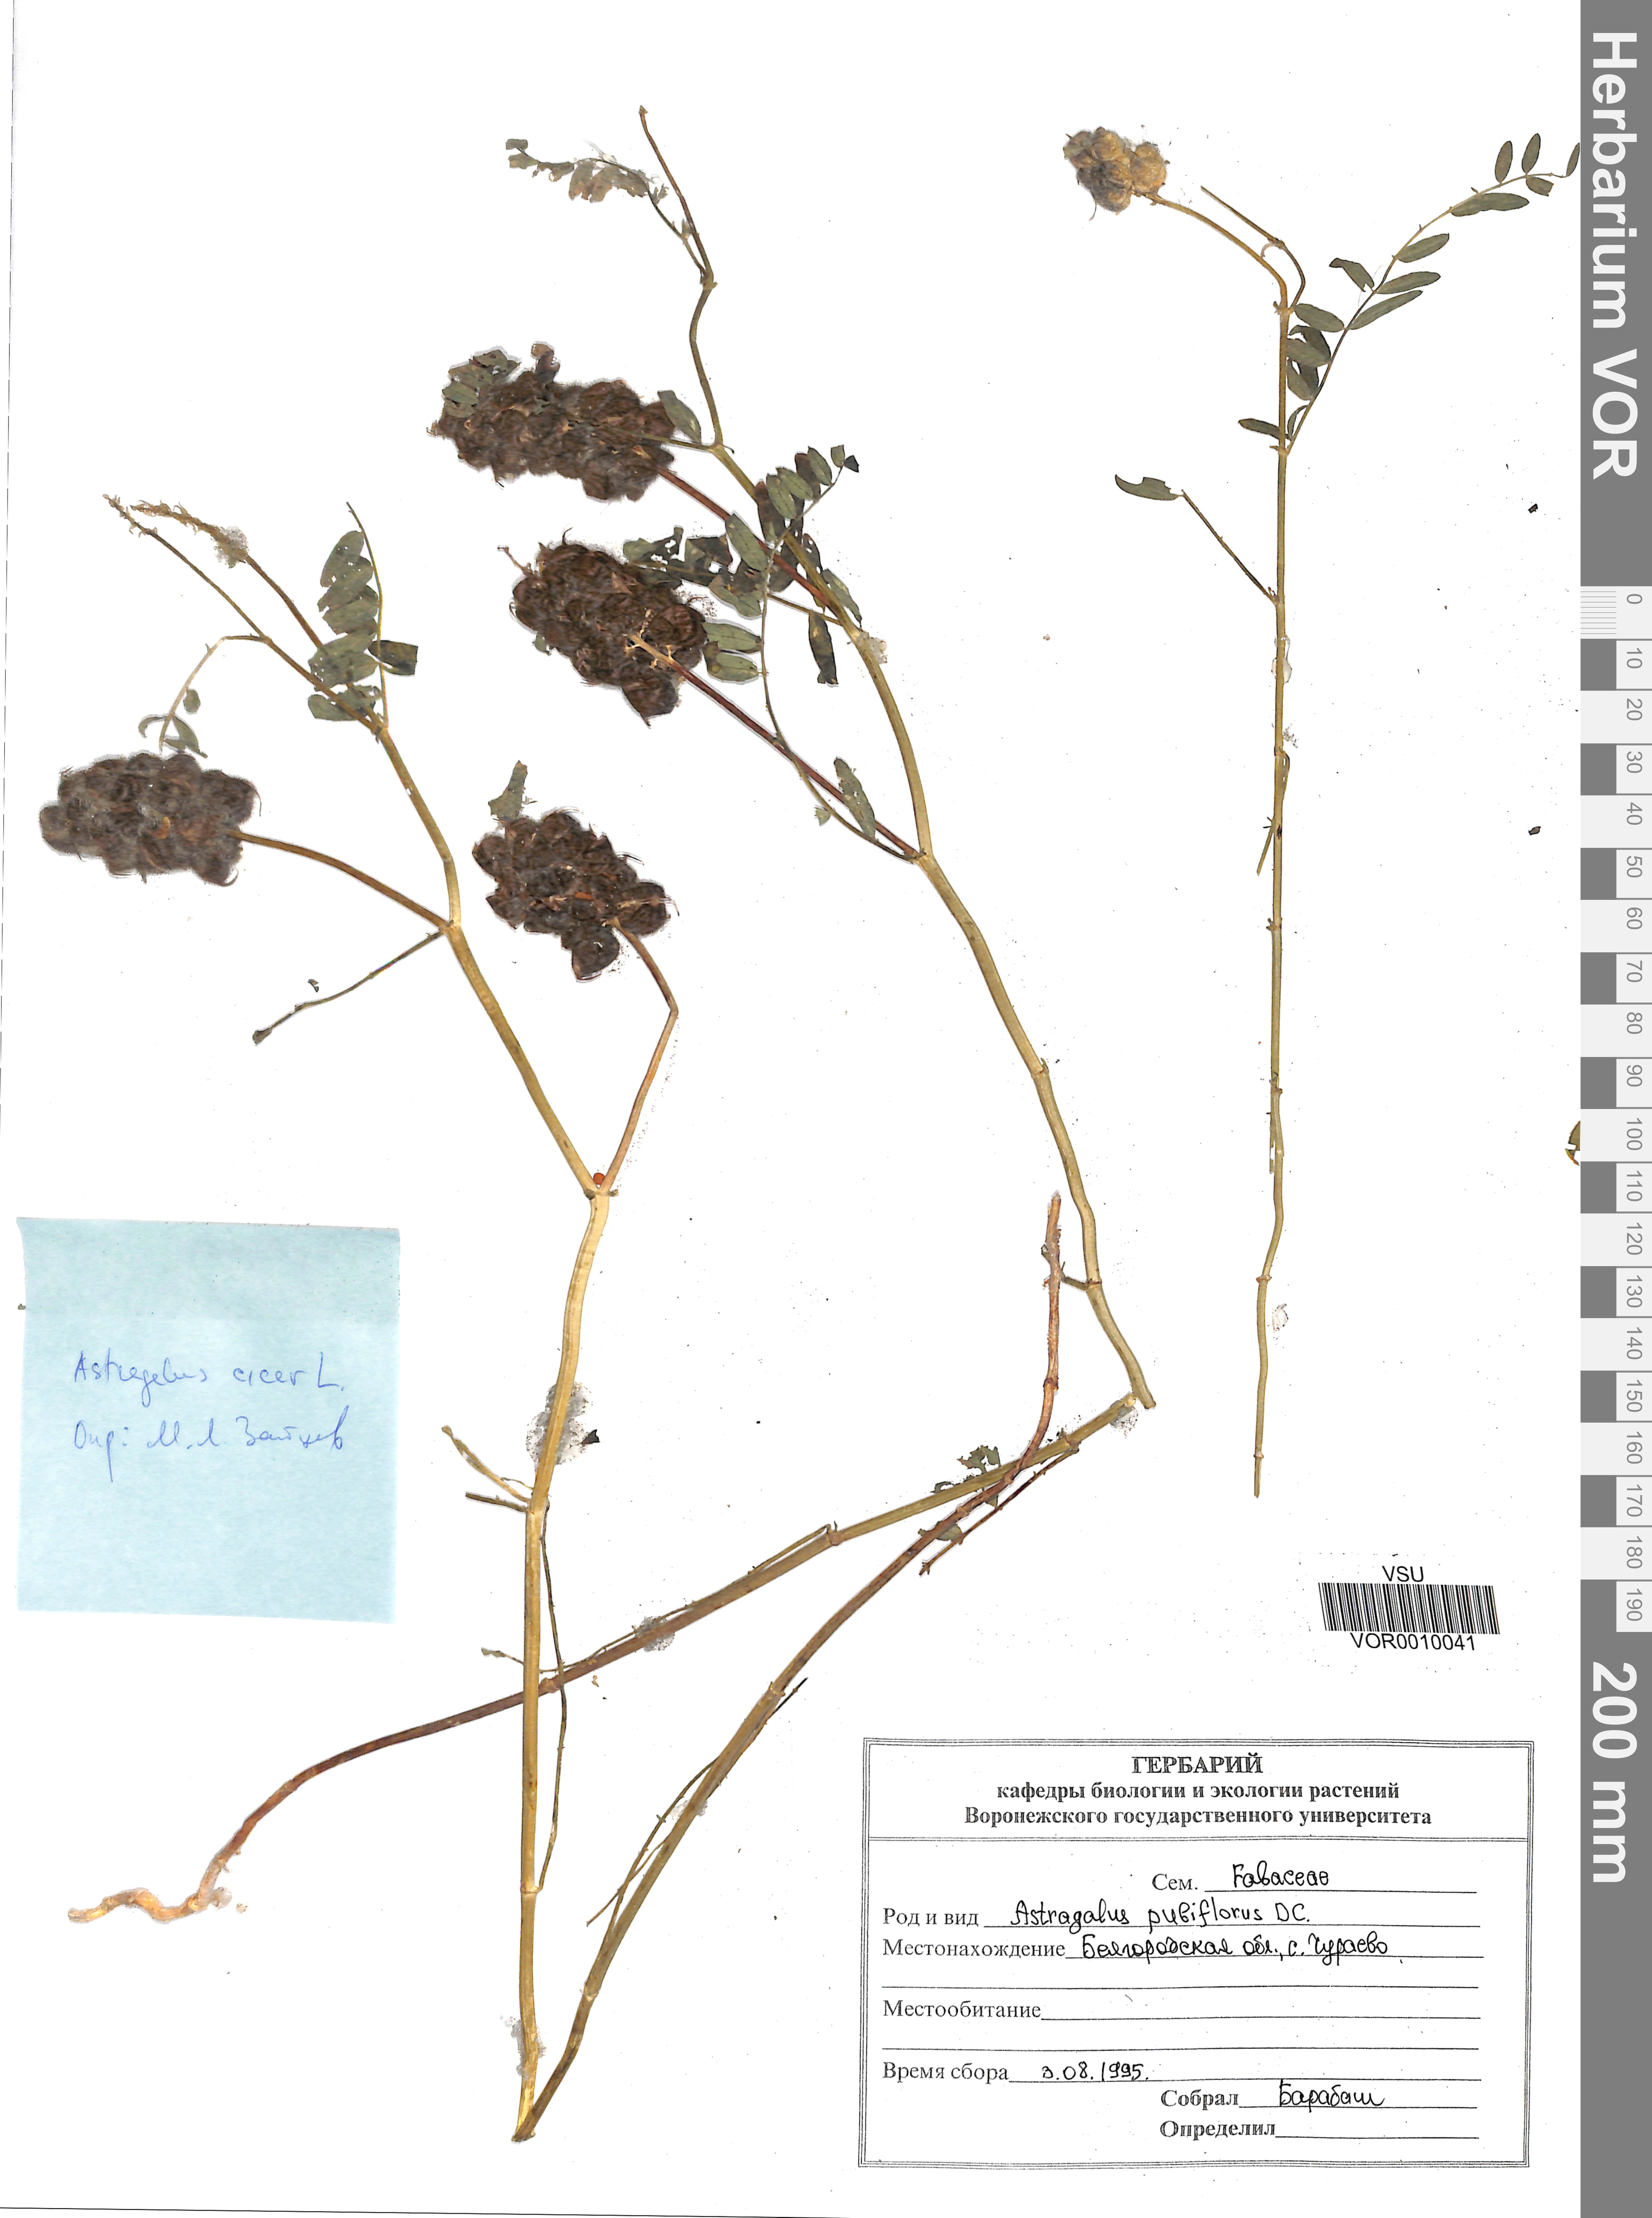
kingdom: Plantae
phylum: Tracheophyta
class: Magnoliopsida
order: Fabales
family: Fabaceae
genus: Astragalus
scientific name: Astragalus cicer
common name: Chick-pea milk-vetch
